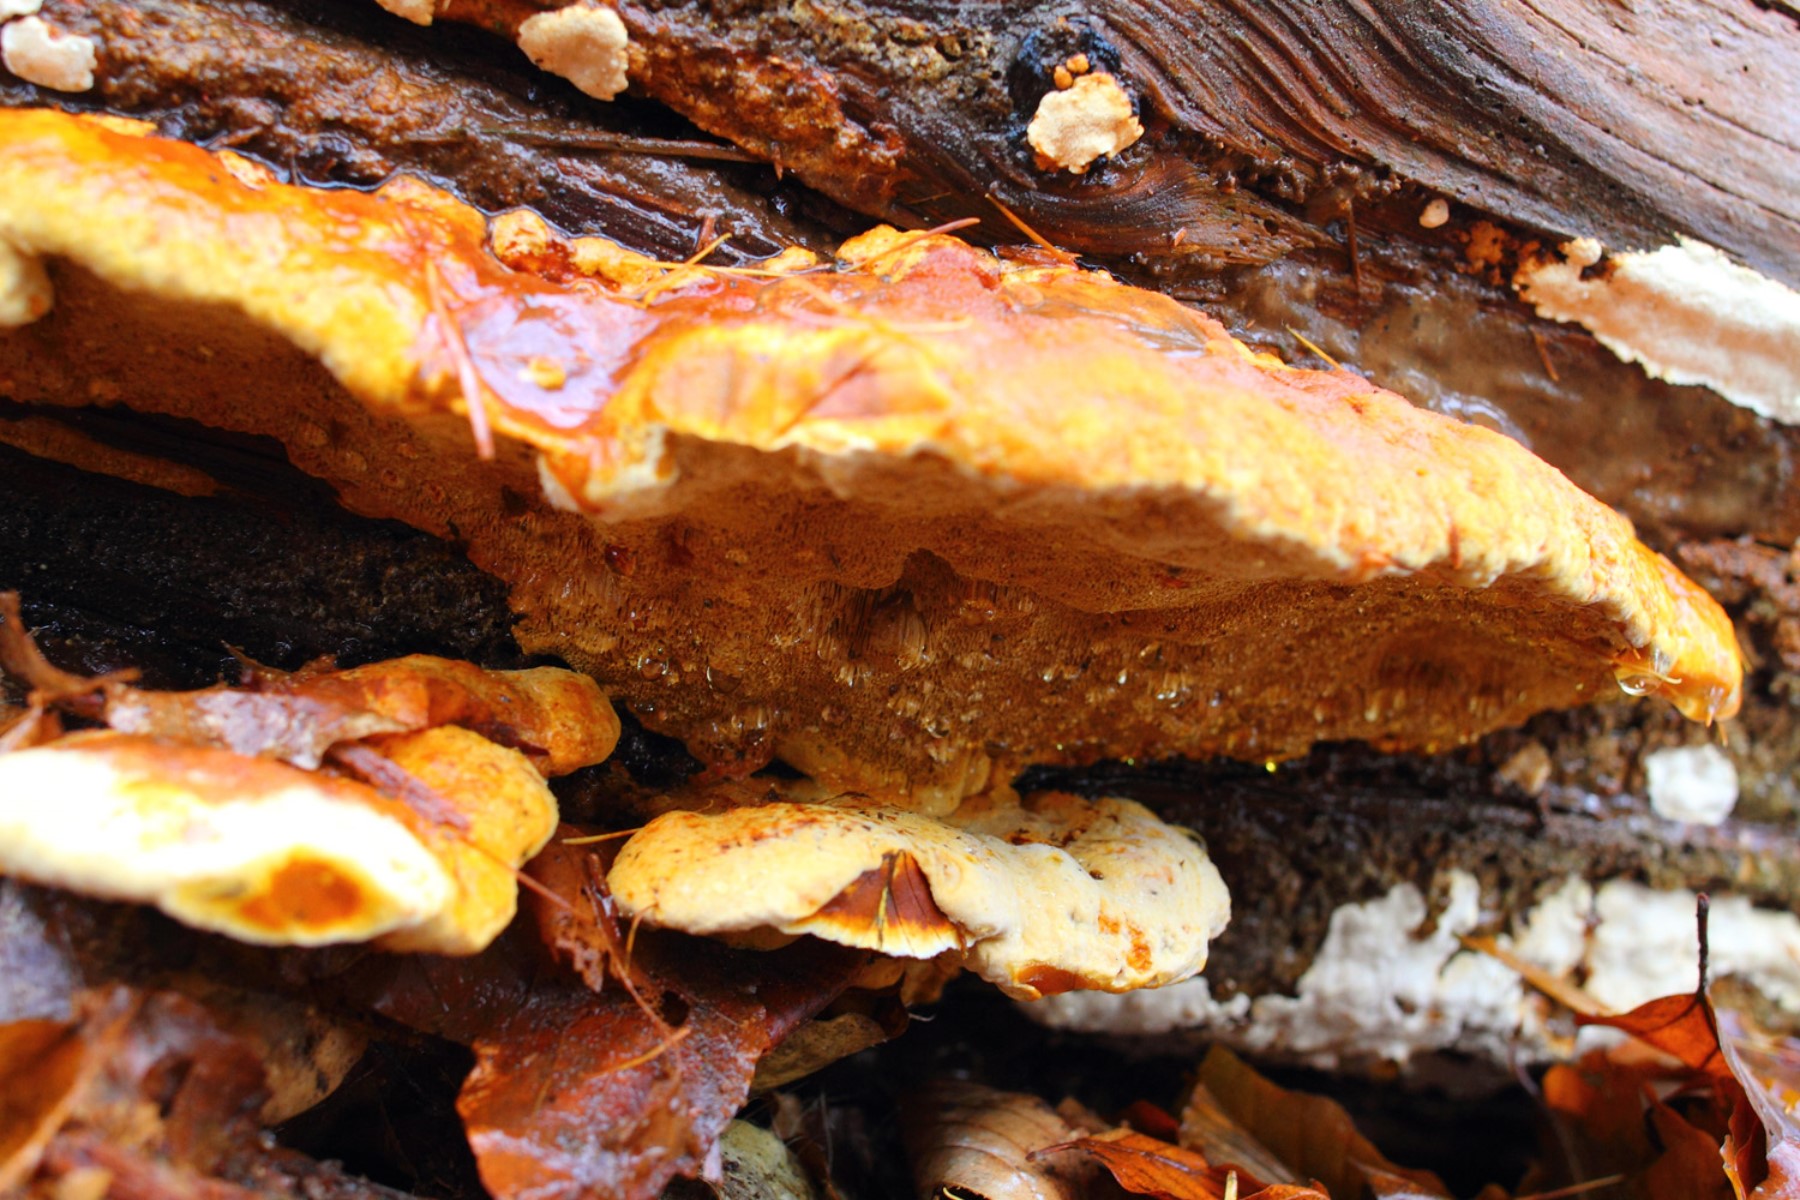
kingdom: Fungi
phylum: Basidiomycota
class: Agaricomycetes
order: Gloeophyllales
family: Gloeophyllaceae
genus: Gloeophyllum
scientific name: Gloeophyllum odoratum
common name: duftende korkhat
